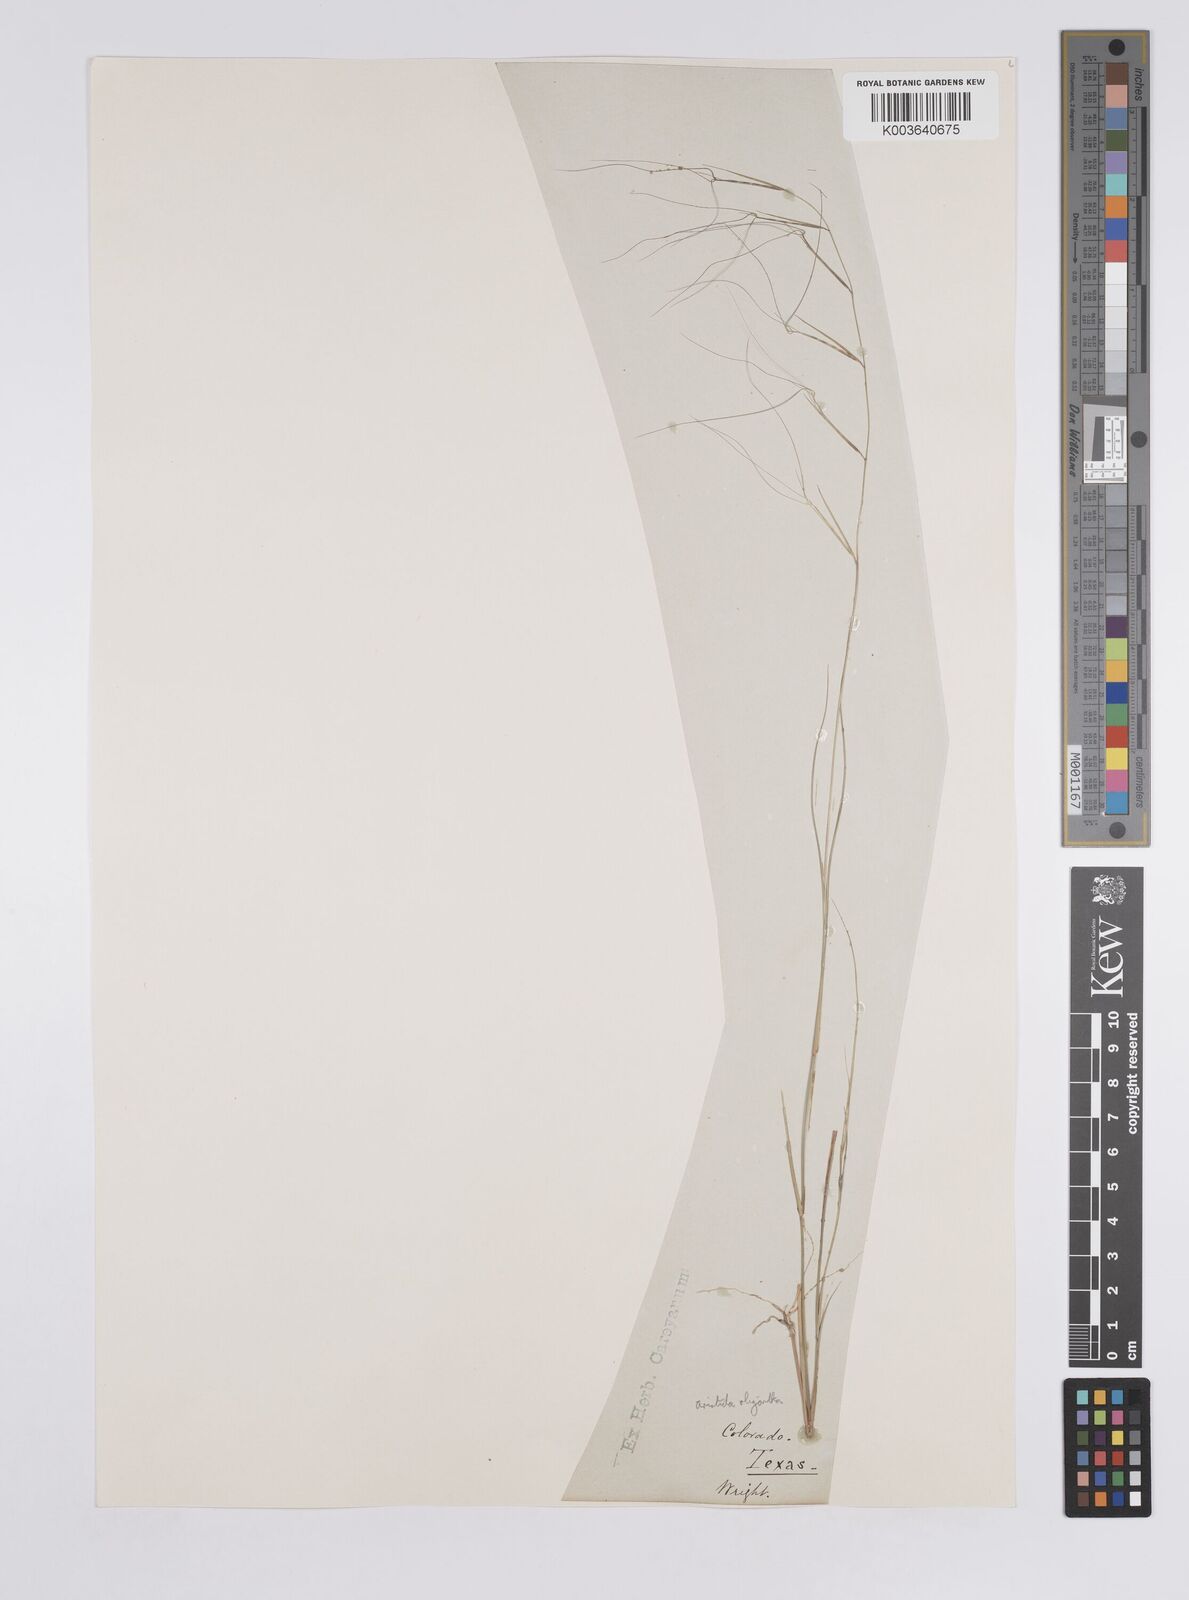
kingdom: Plantae
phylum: Tracheophyta
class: Liliopsida
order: Poales
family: Poaceae
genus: Aristida
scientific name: Aristida oligantha
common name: Few-flowered aristida
